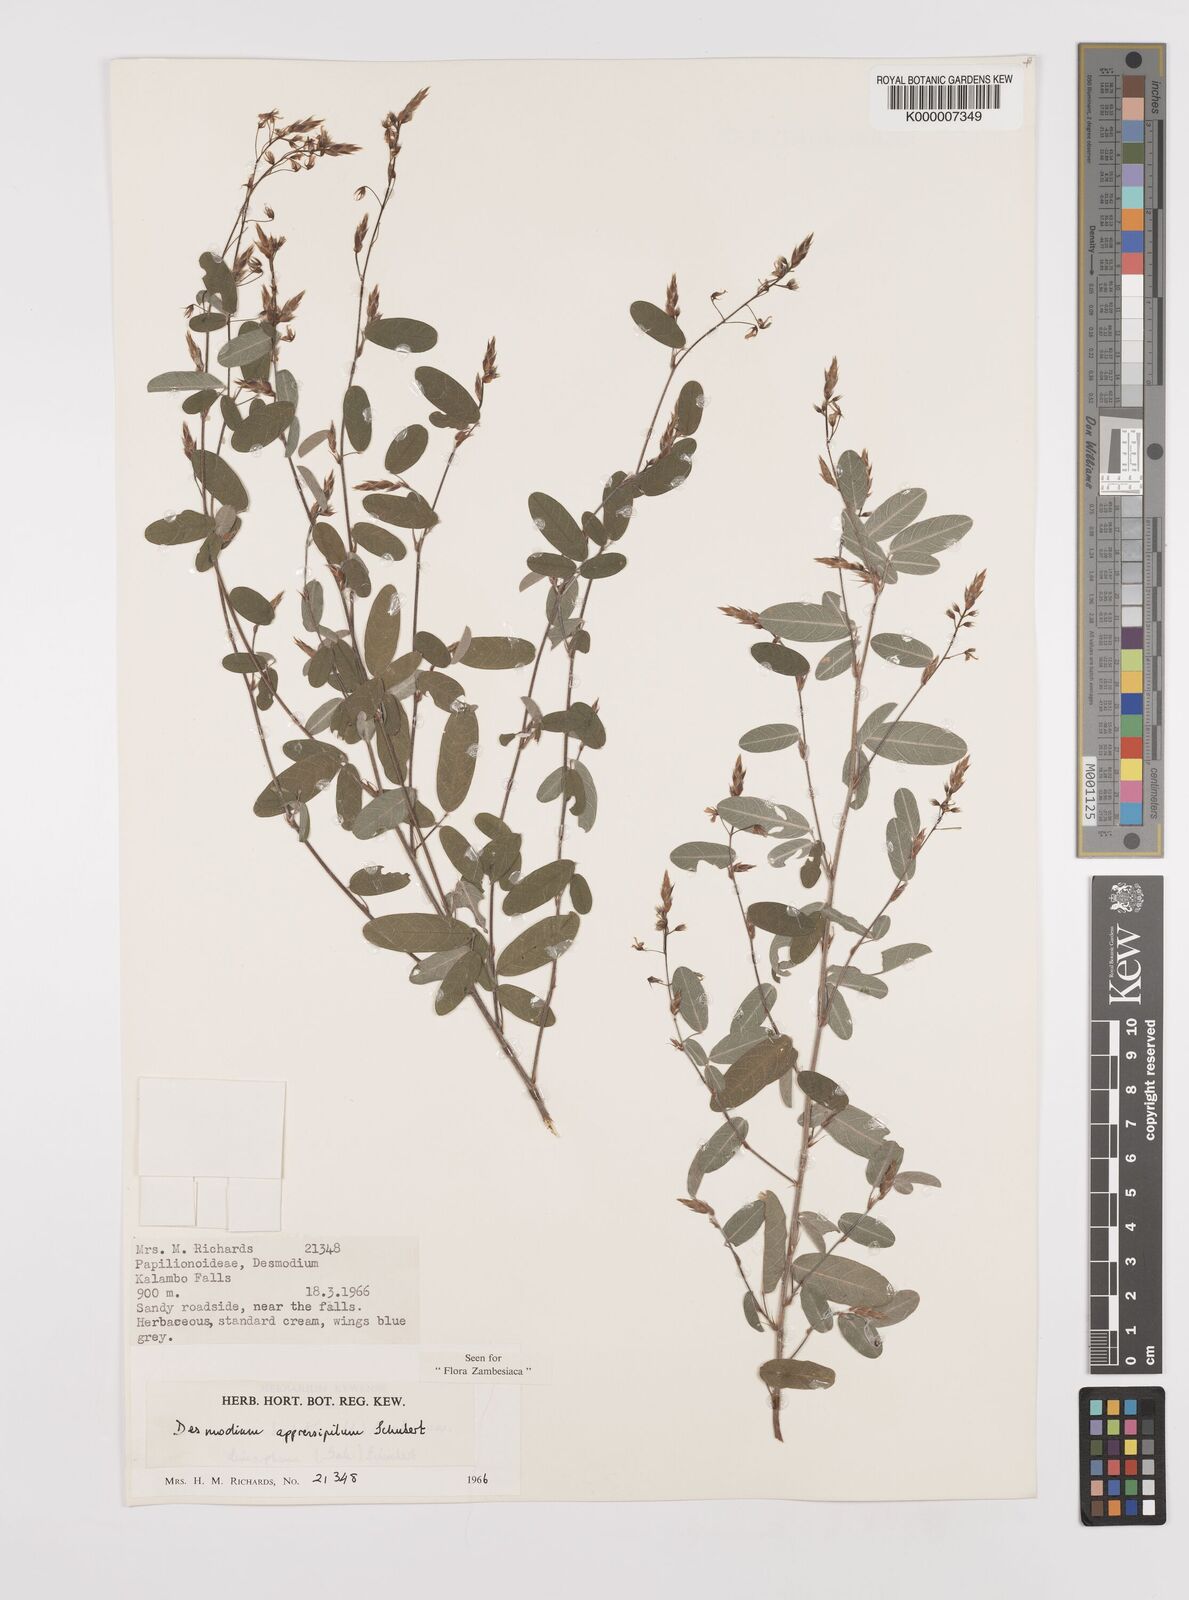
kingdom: Plantae
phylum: Tracheophyta
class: Magnoliopsida
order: Fabales
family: Fabaceae
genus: Grona
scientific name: Grona appressipila
